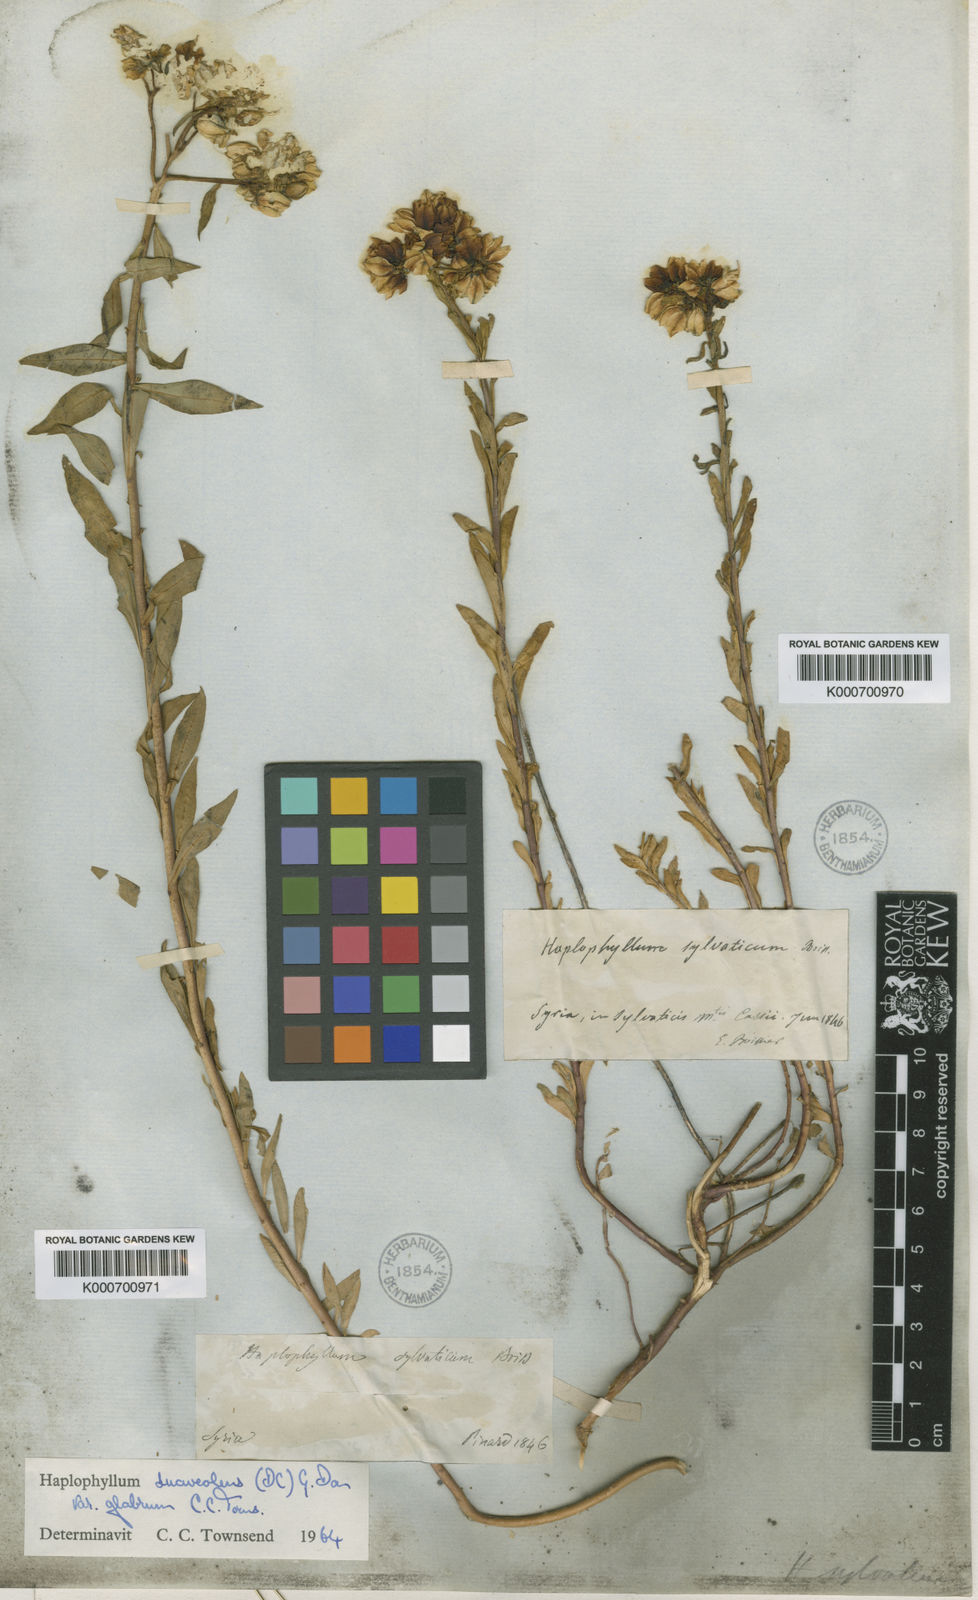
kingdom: Plantae
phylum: Tracheophyta
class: Magnoliopsida
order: Sapindales
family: Rutaceae
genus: Haplophyllum
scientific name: Haplophyllum suaveolens
